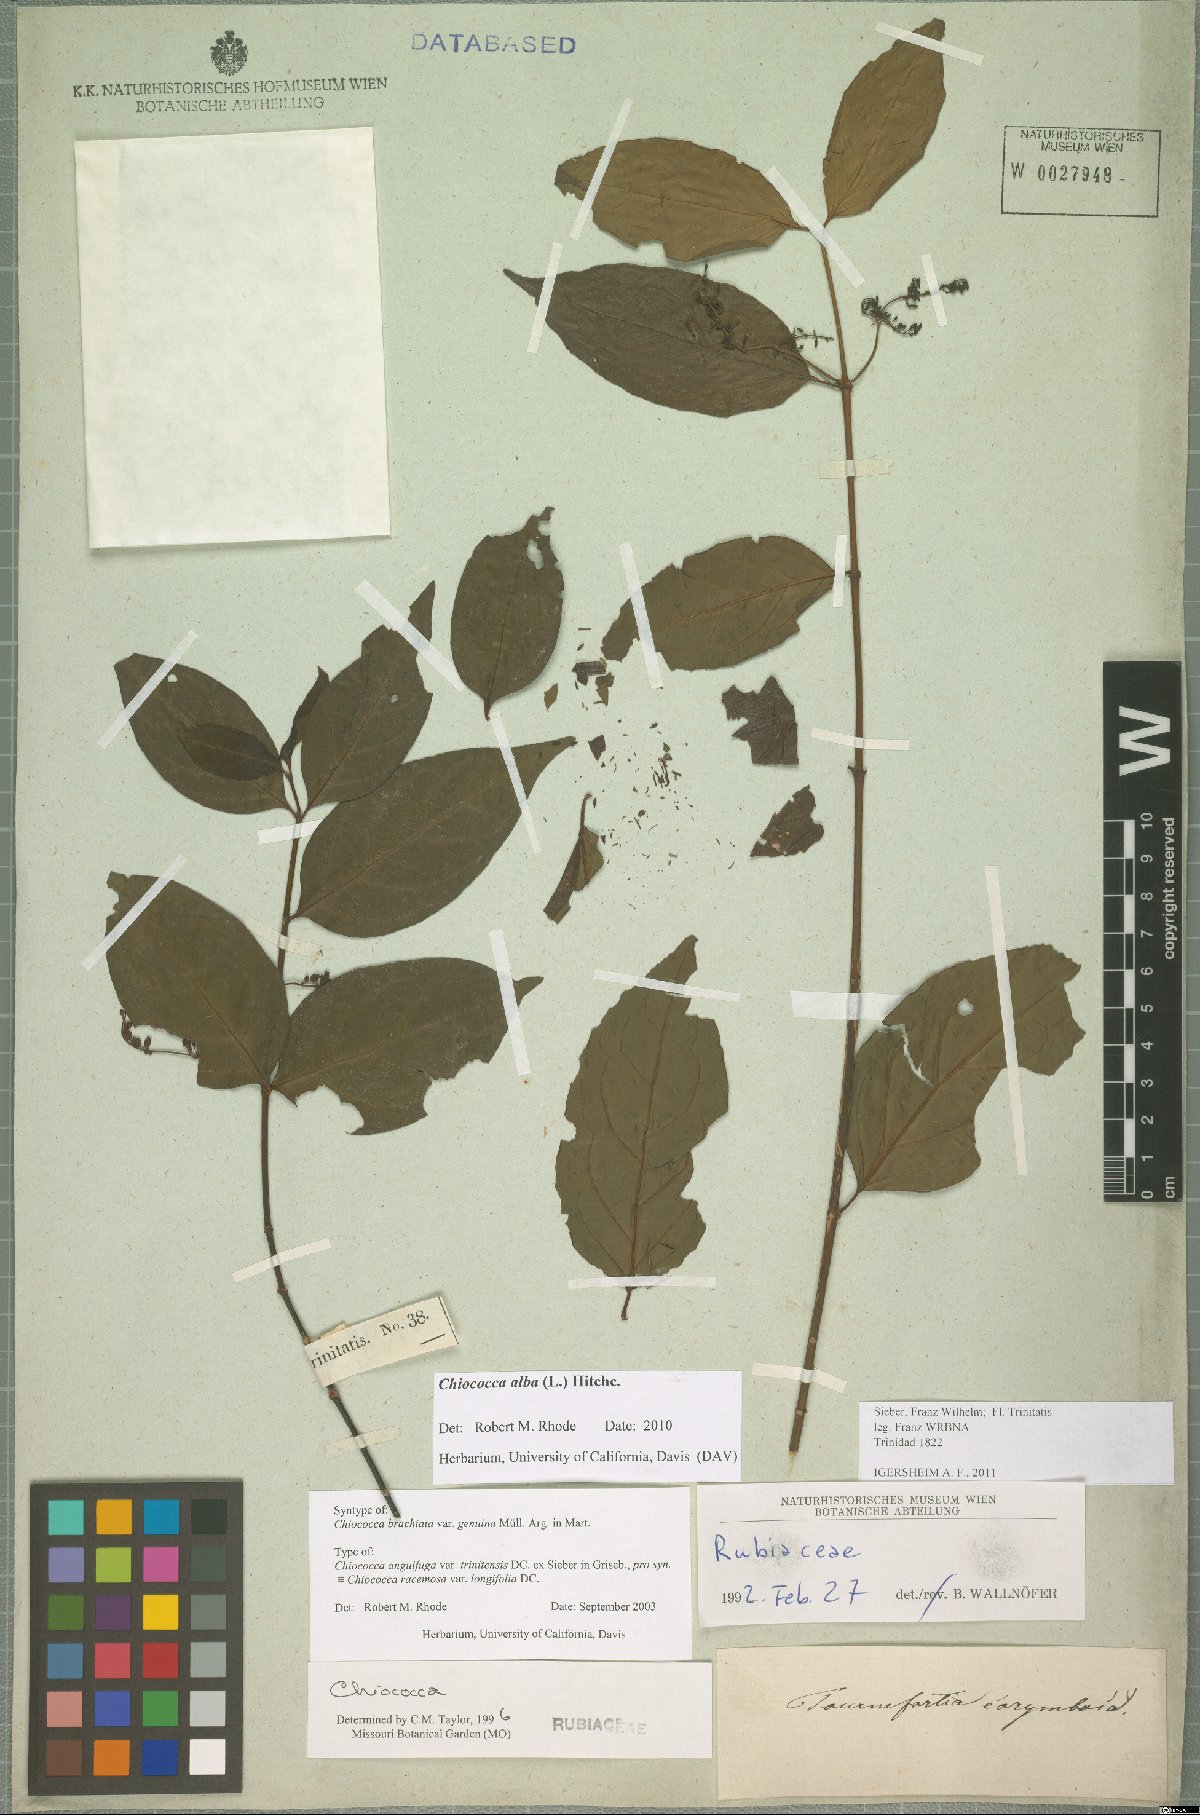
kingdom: Plantae
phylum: Tracheophyta
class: Magnoliopsida
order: Gentianales
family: Rubiaceae
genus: Chiococca
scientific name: Chiococca alba
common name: Snowberry
